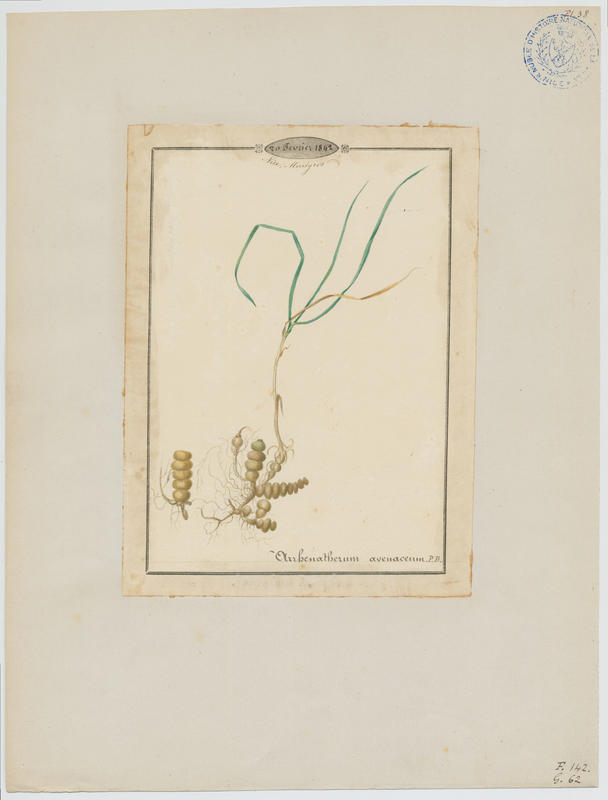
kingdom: Plantae
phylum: Tracheophyta
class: Liliopsida
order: Poales
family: Poaceae
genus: Arrhenatherum
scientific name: Arrhenatherum elatius
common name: Tall oatgrass
